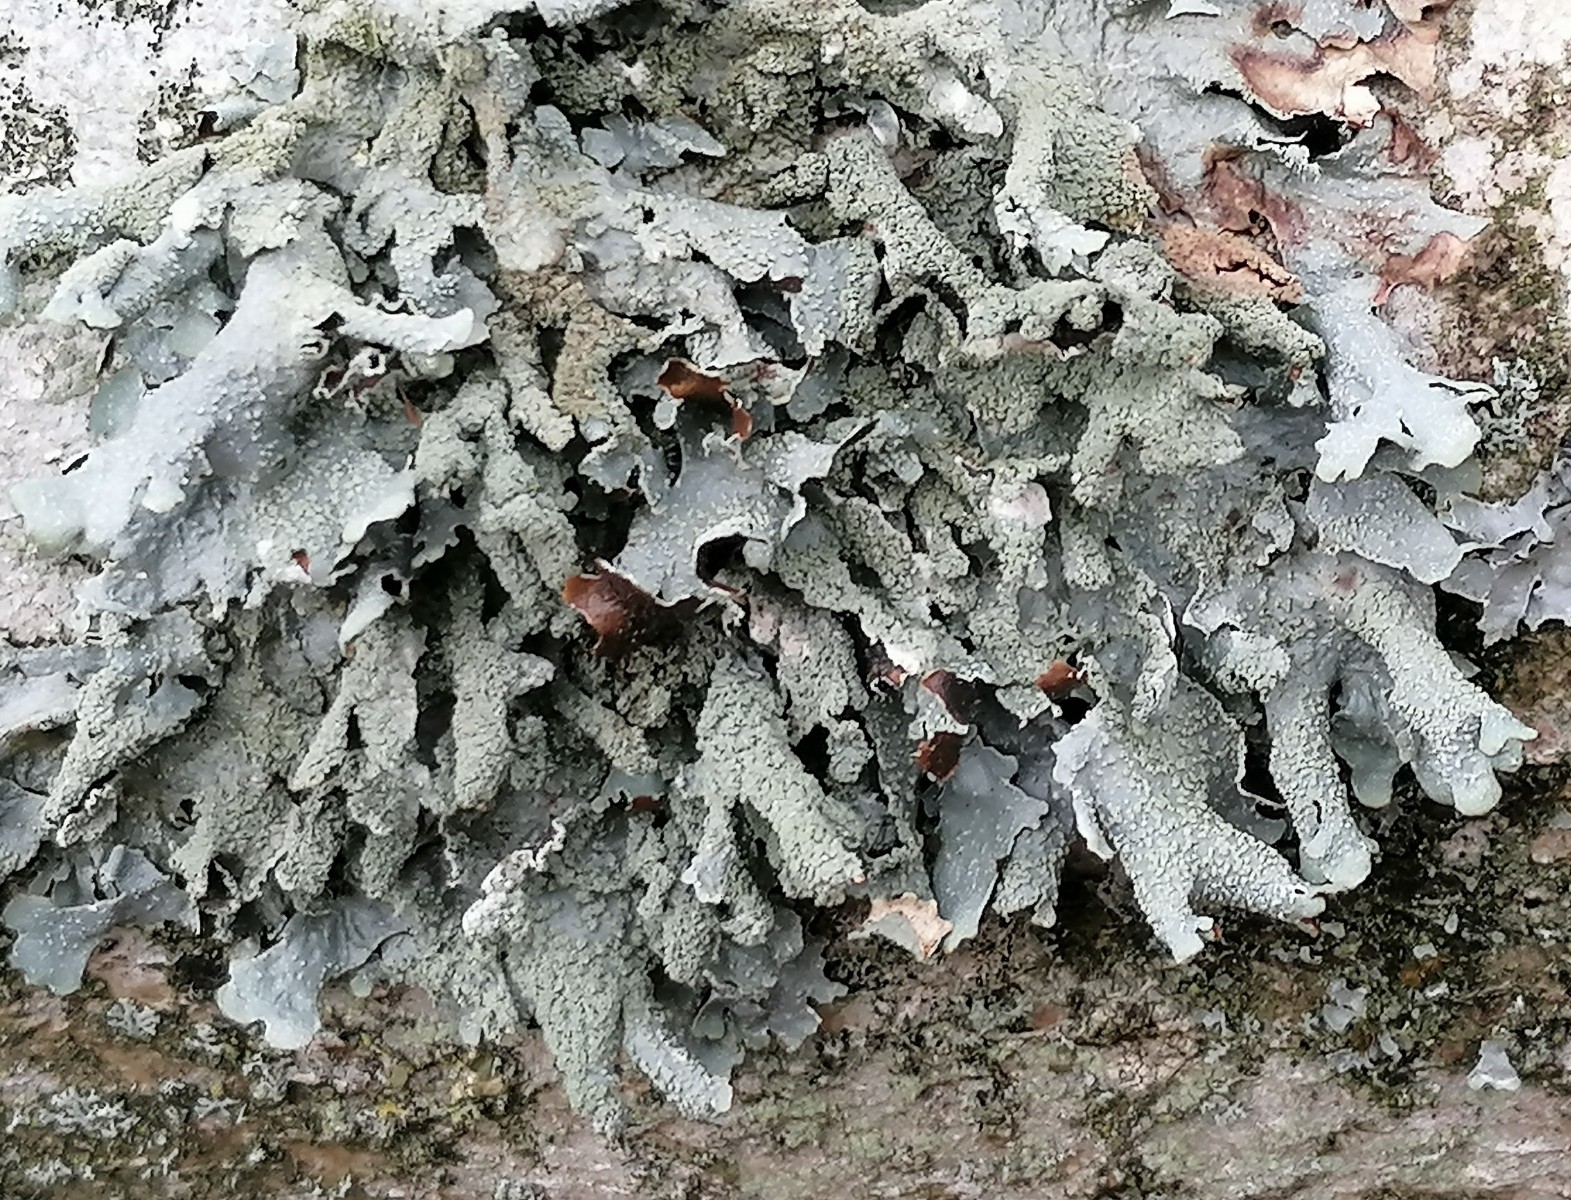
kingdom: Fungi
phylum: Ascomycota
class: Lecanoromycetes
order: Lecanorales
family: Parmeliaceae
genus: Parmelia
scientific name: Parmelia submontana
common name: langlobet skållav
